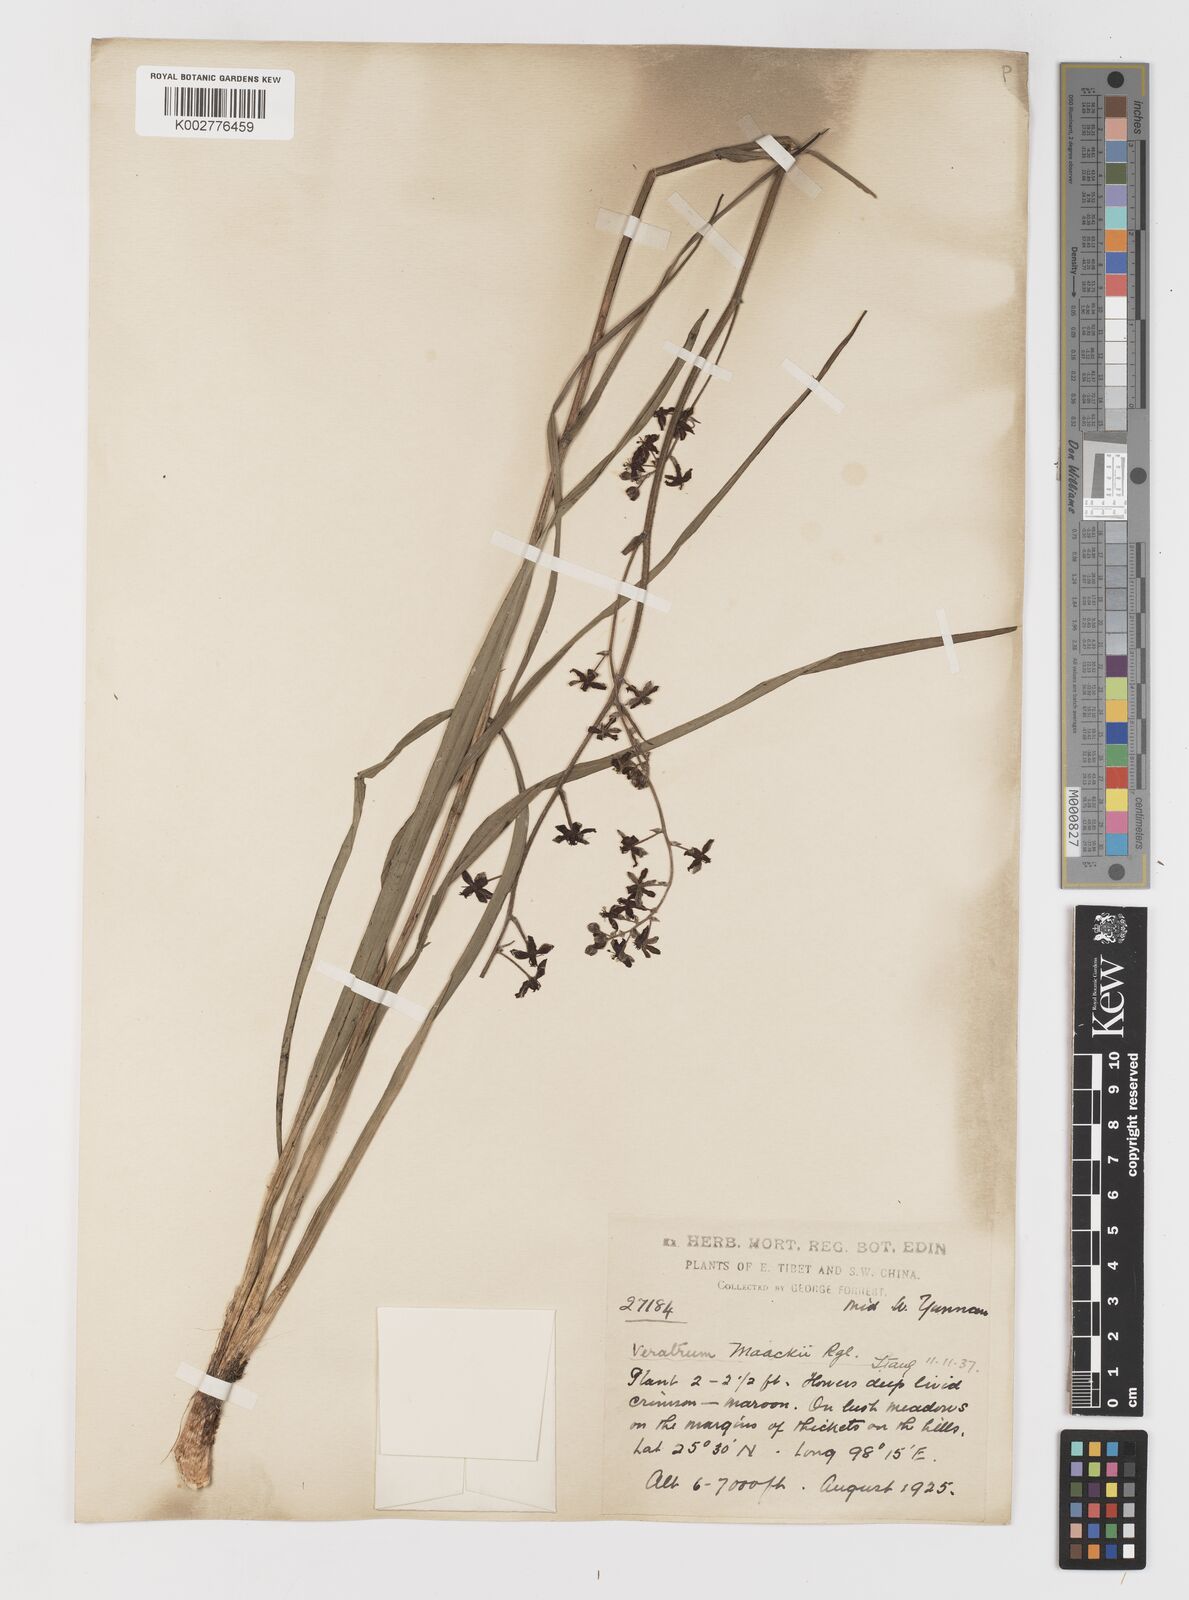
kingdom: Plantae
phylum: Tracheophyta
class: Liliopsida
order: Liliales
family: Melanthiaceae
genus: Veratrum
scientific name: Veratrum maackii
